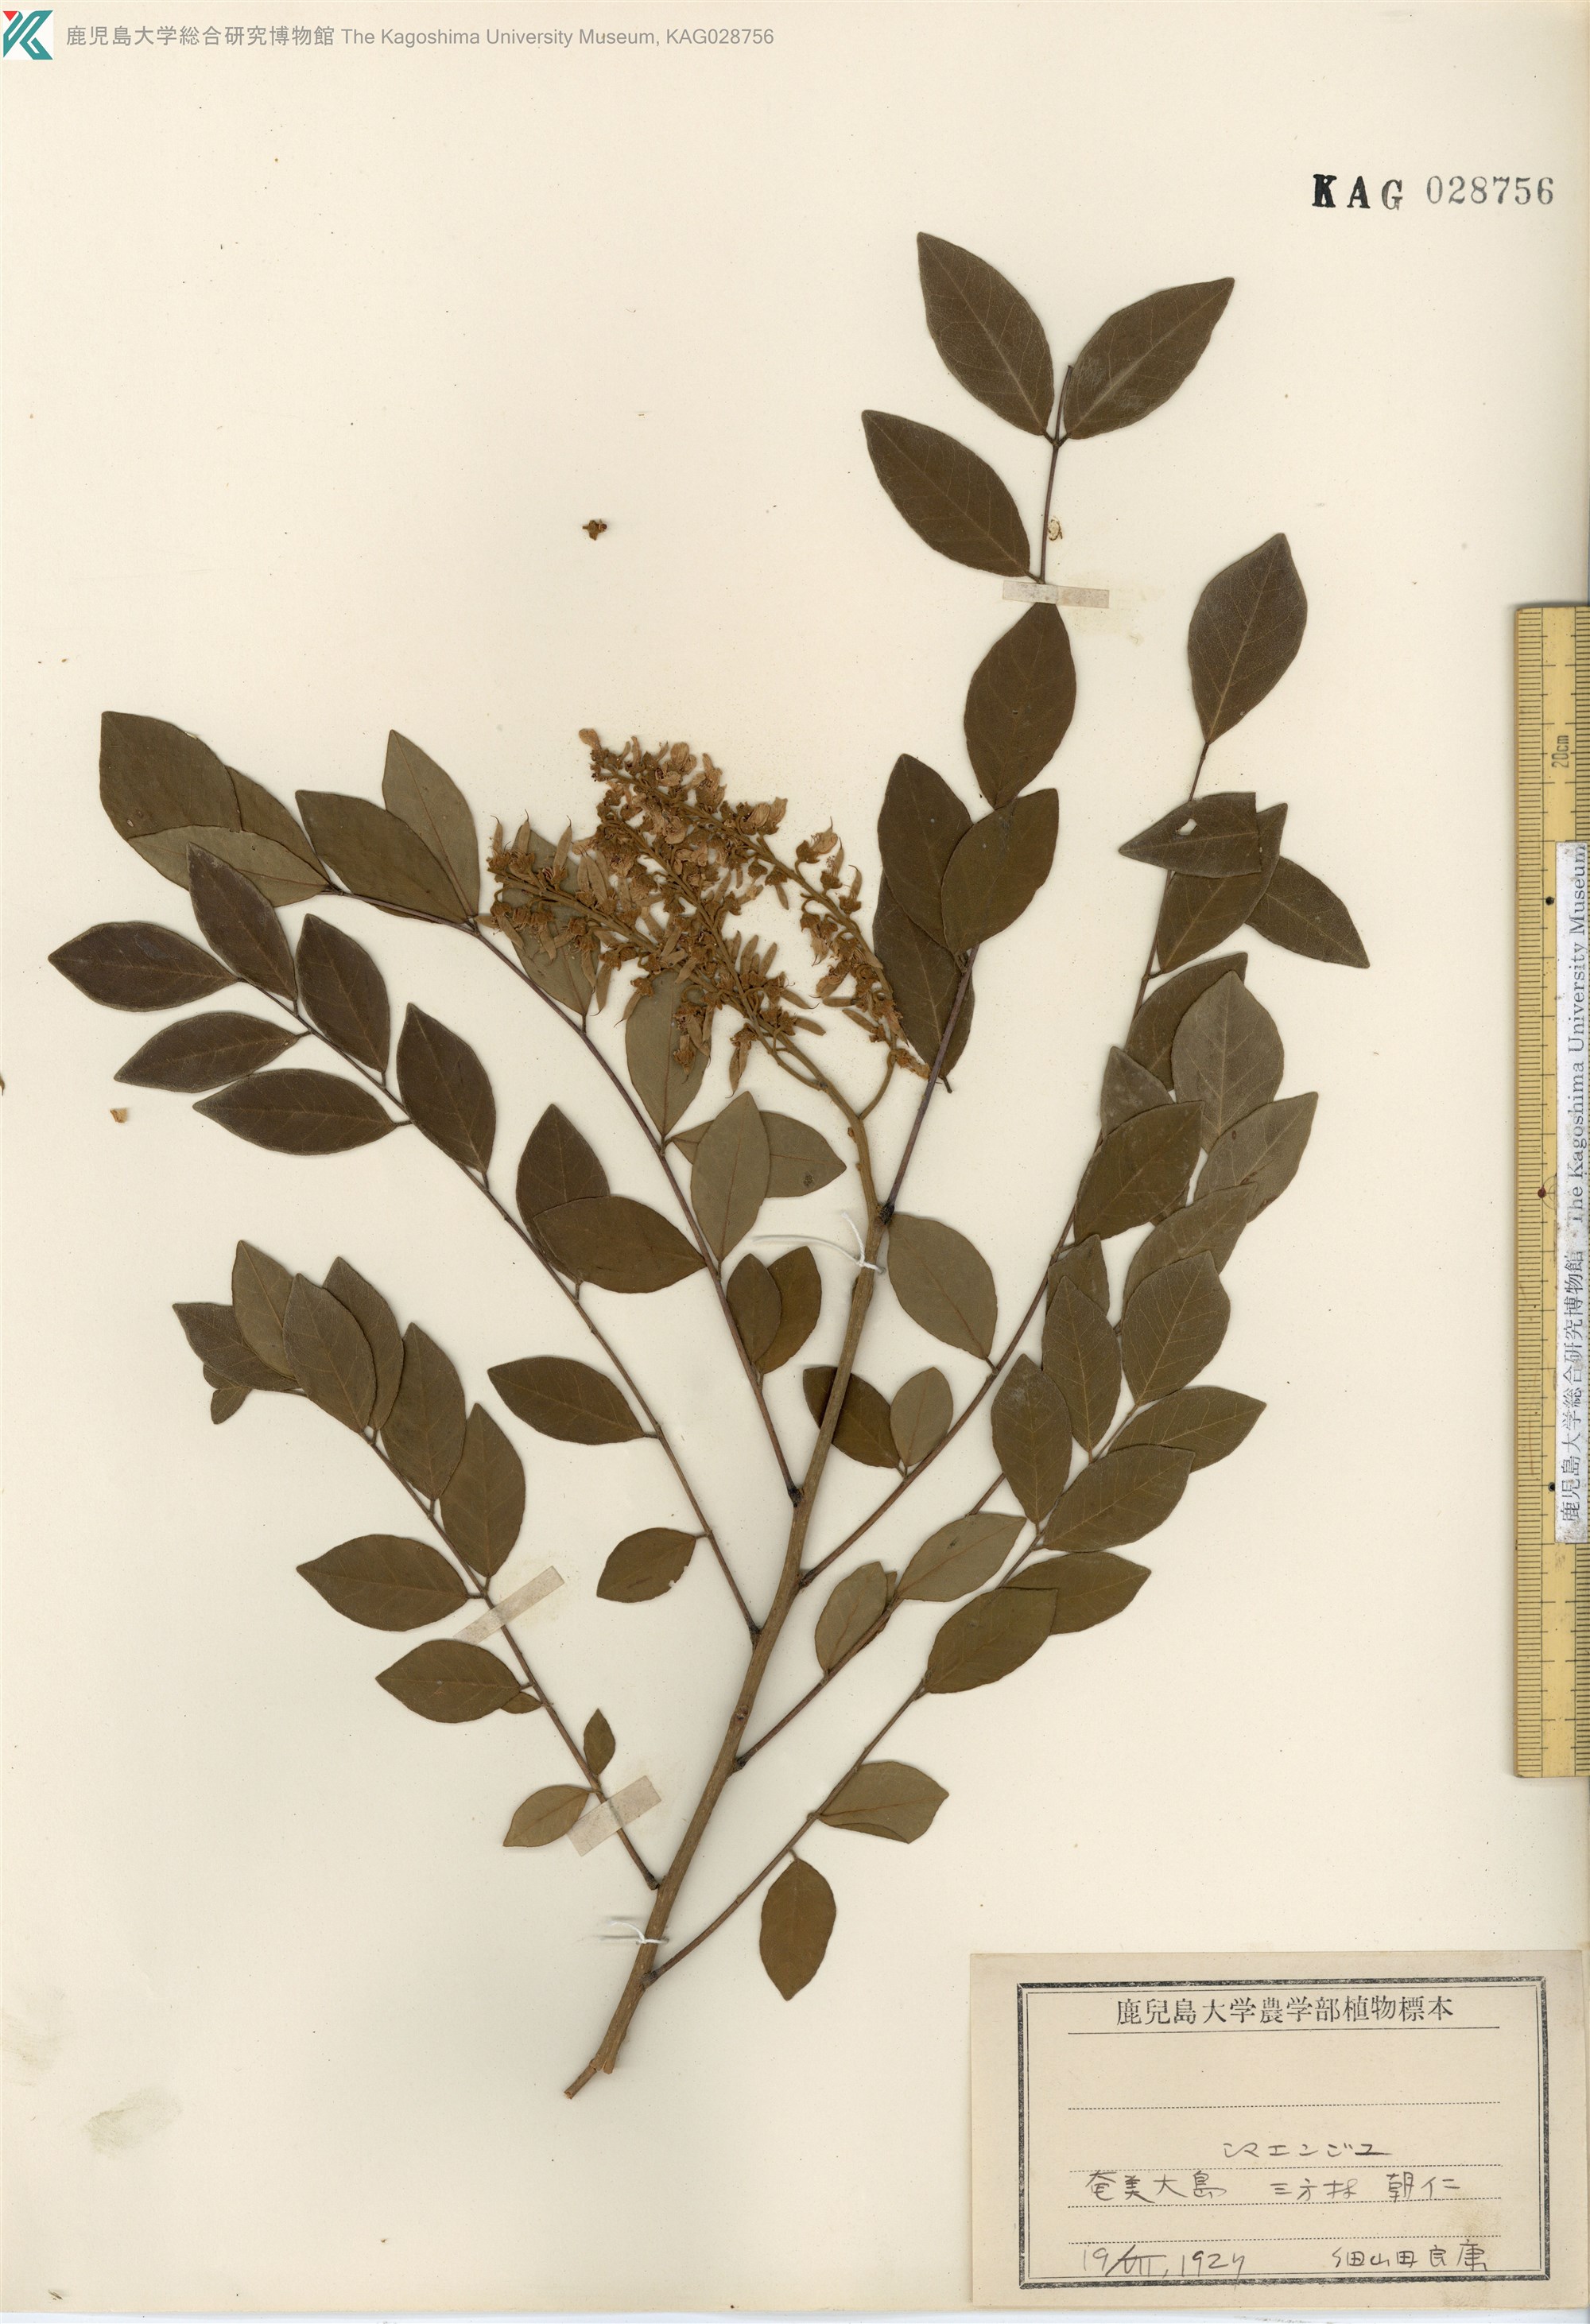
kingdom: Plantae
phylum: Tracheophyta
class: Magnoliopsida
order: Fabales
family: Fabaceae
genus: Maackia
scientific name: Maackia tashiroi
